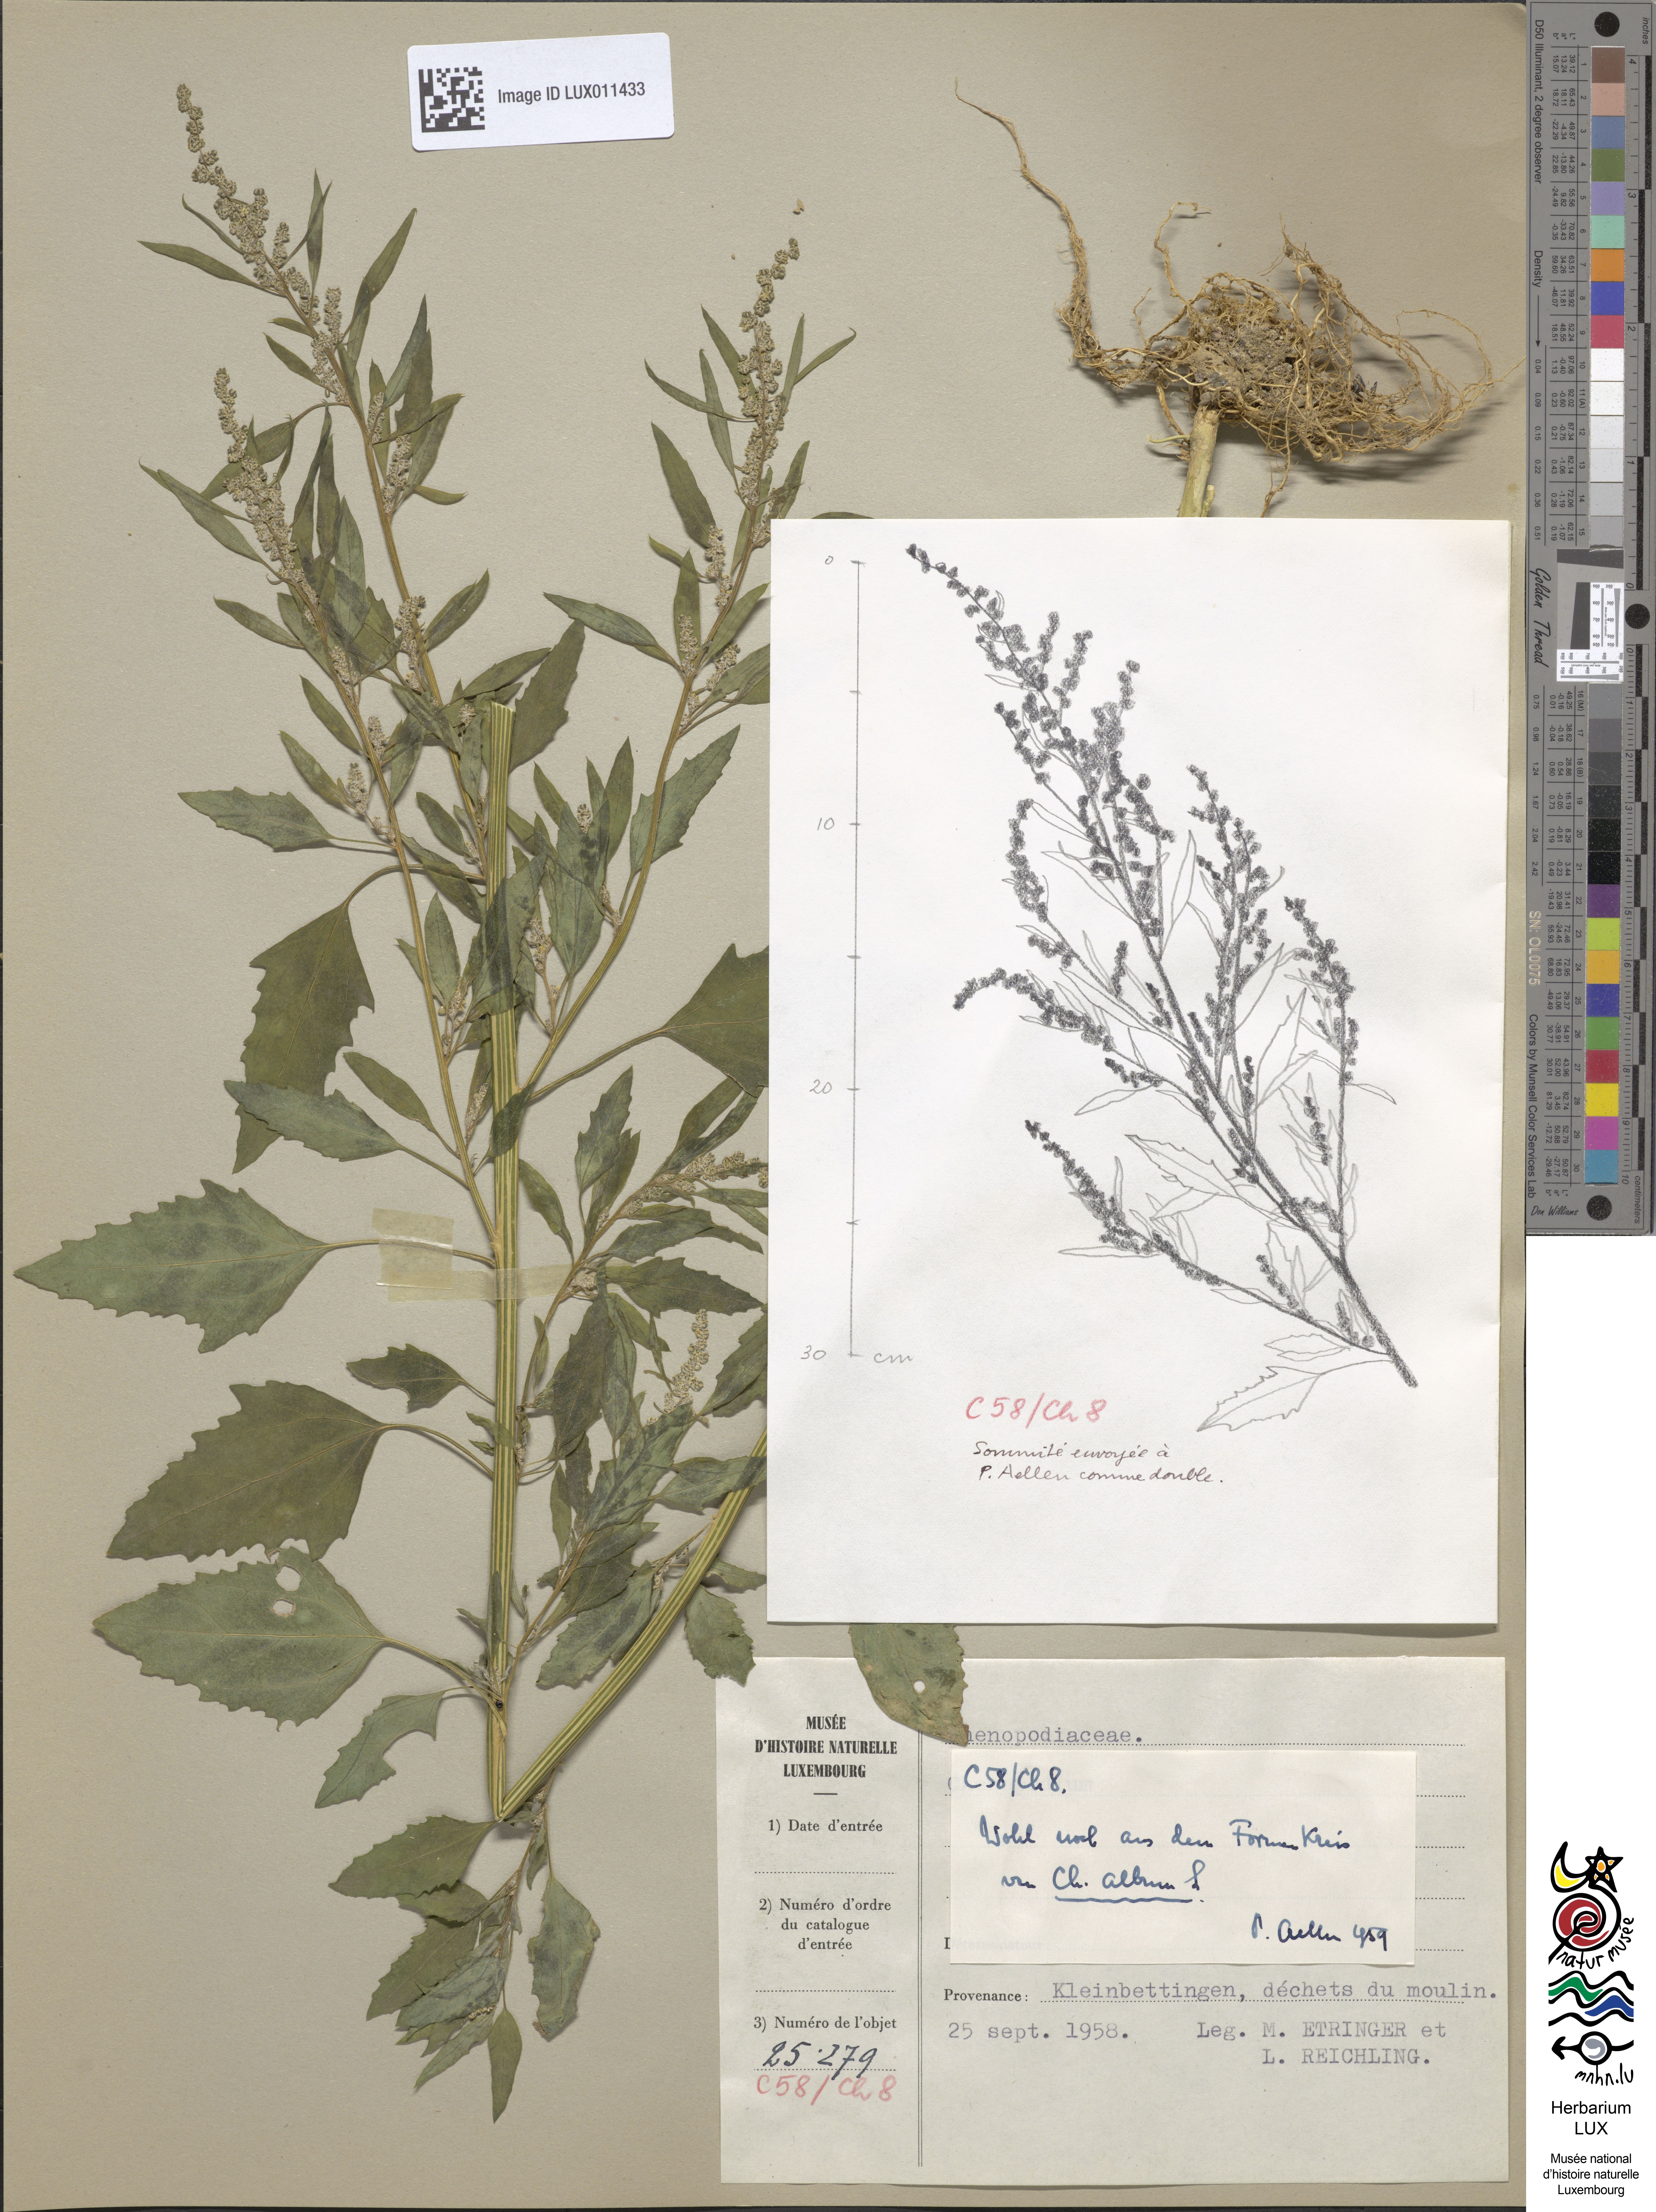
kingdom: Plantae
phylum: Tracheophyta
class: Magnoliopsida
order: Caryophyllales
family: Amaranthaceae
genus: Chenopodium
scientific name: Chenopodium album
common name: Fat-hen
